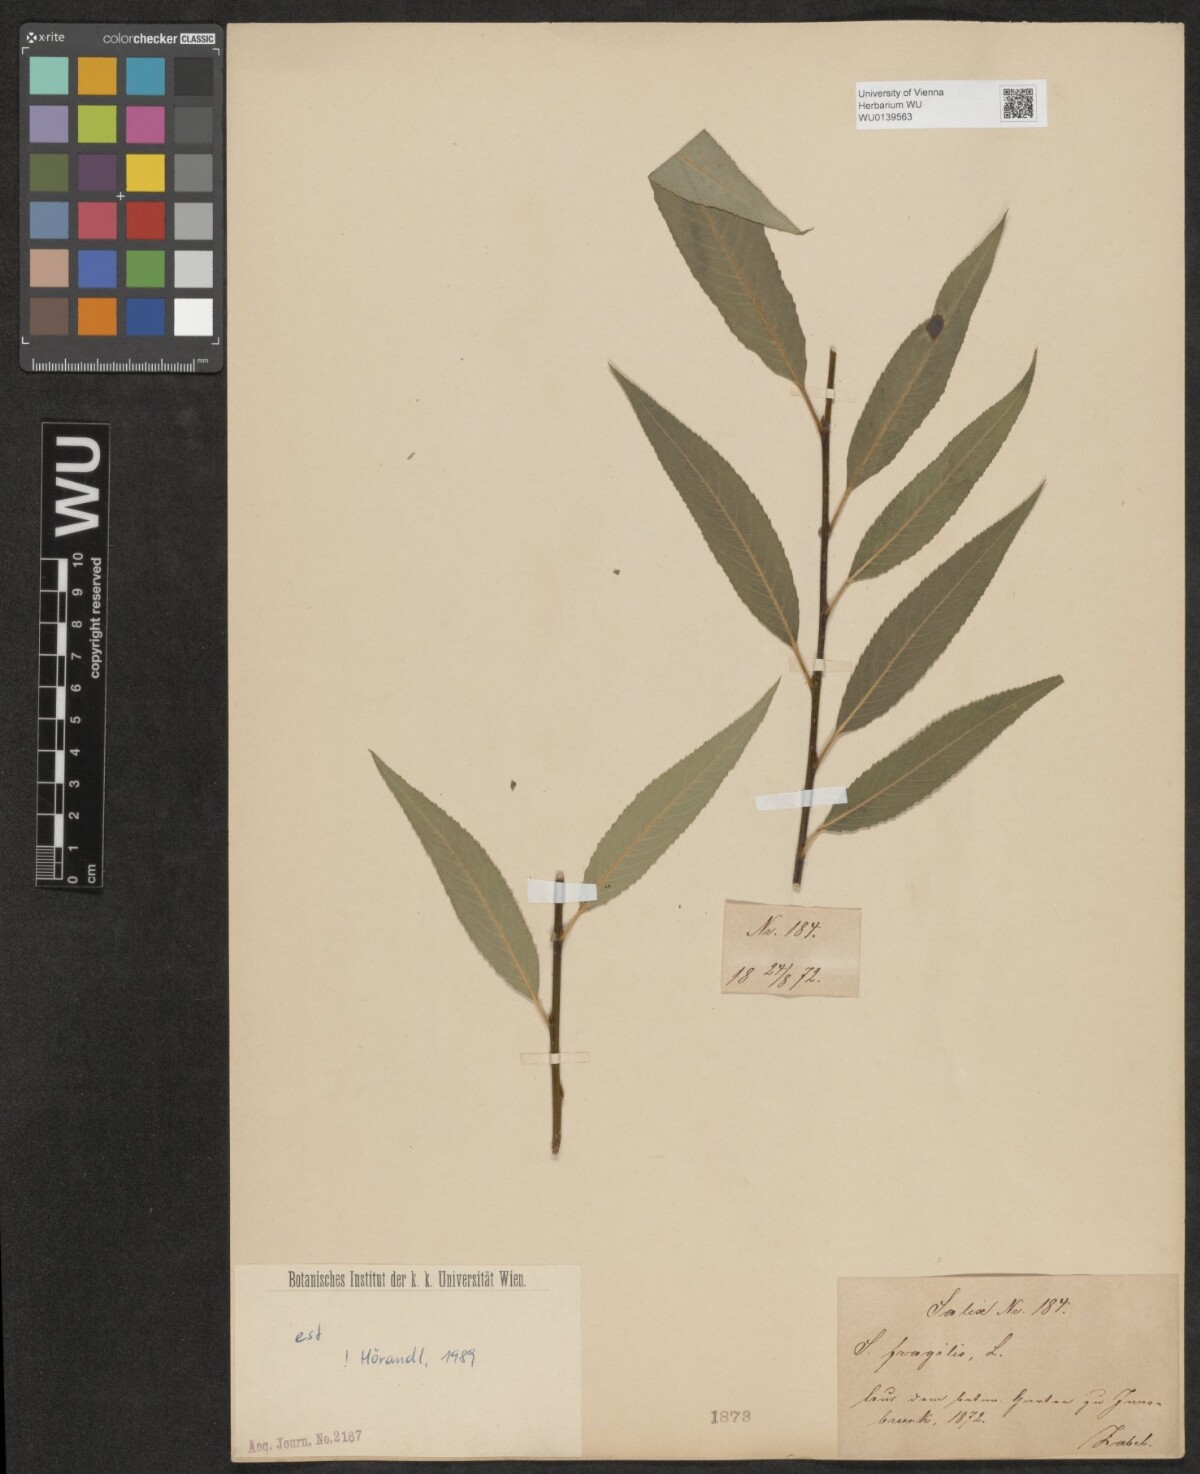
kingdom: Plantae
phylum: Tracheophyta
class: Magnoliopsida
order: Malpighiales
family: Salicaceae
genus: Salix
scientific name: Salix rubens
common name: Hybrid crack willow
